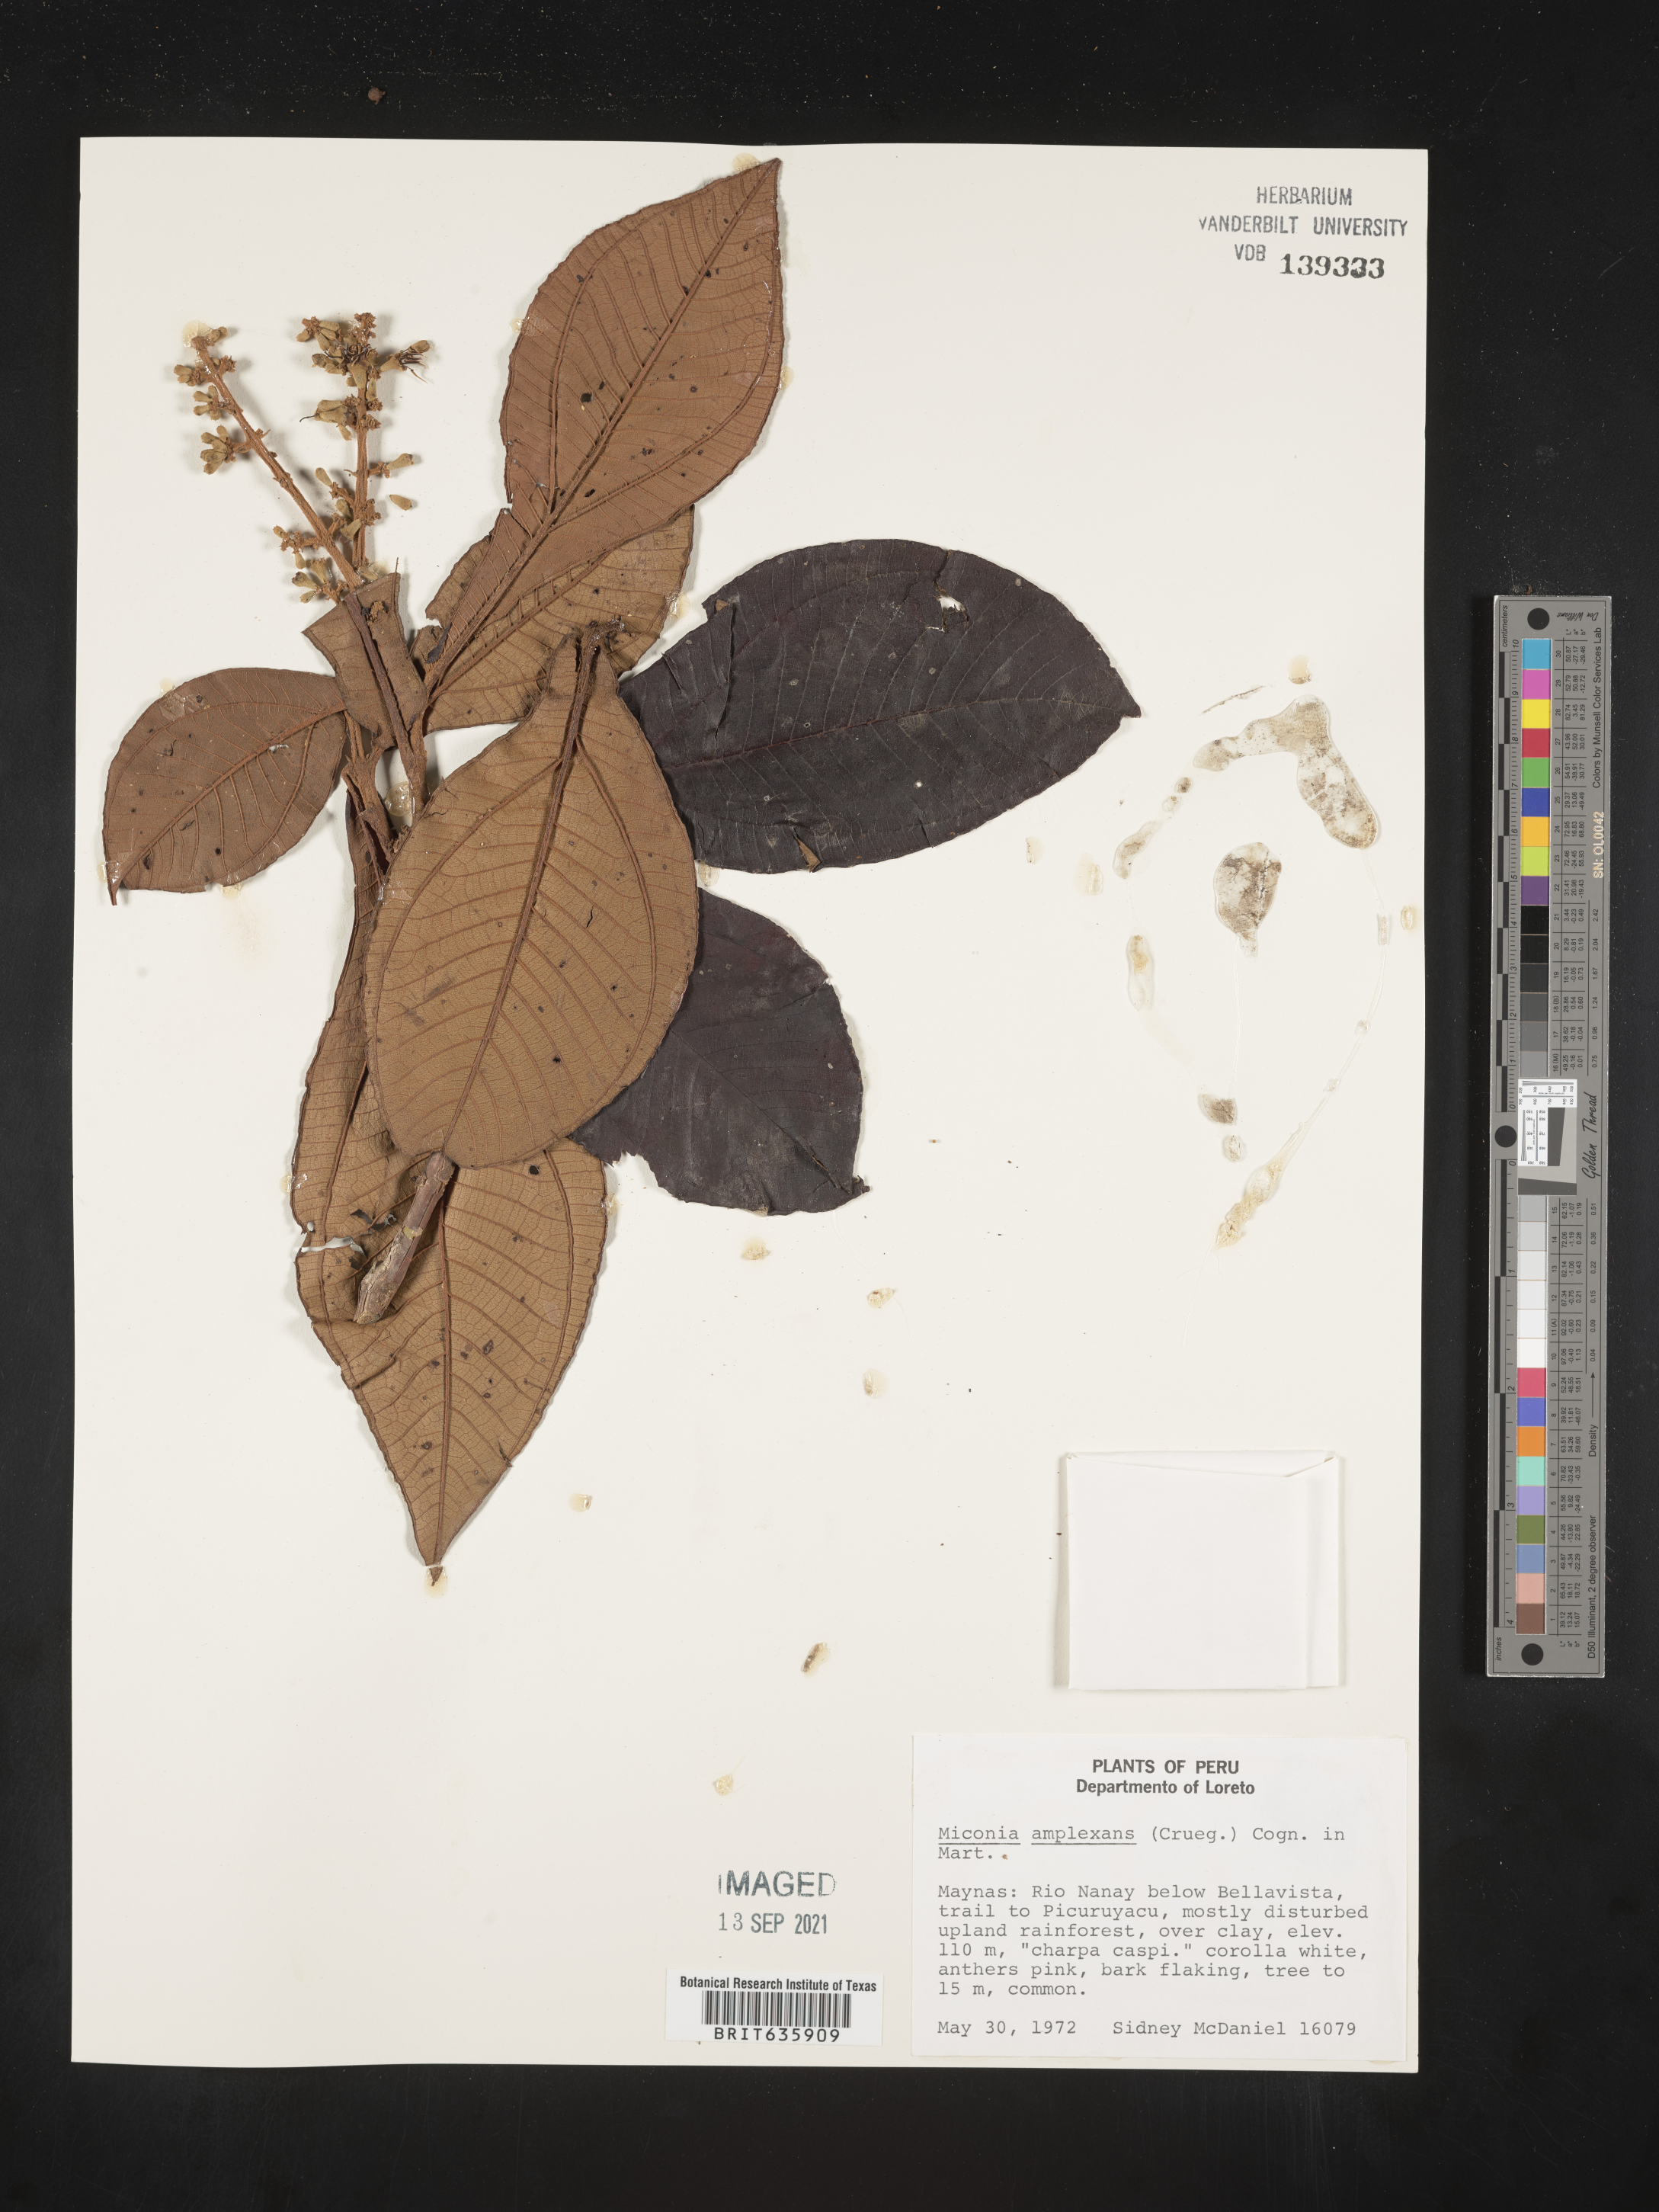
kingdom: Plantae
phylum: Tracheophyta
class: Magnoliopsida
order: Myrtales
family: Melastomataceae
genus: Miconia
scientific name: Miconia
